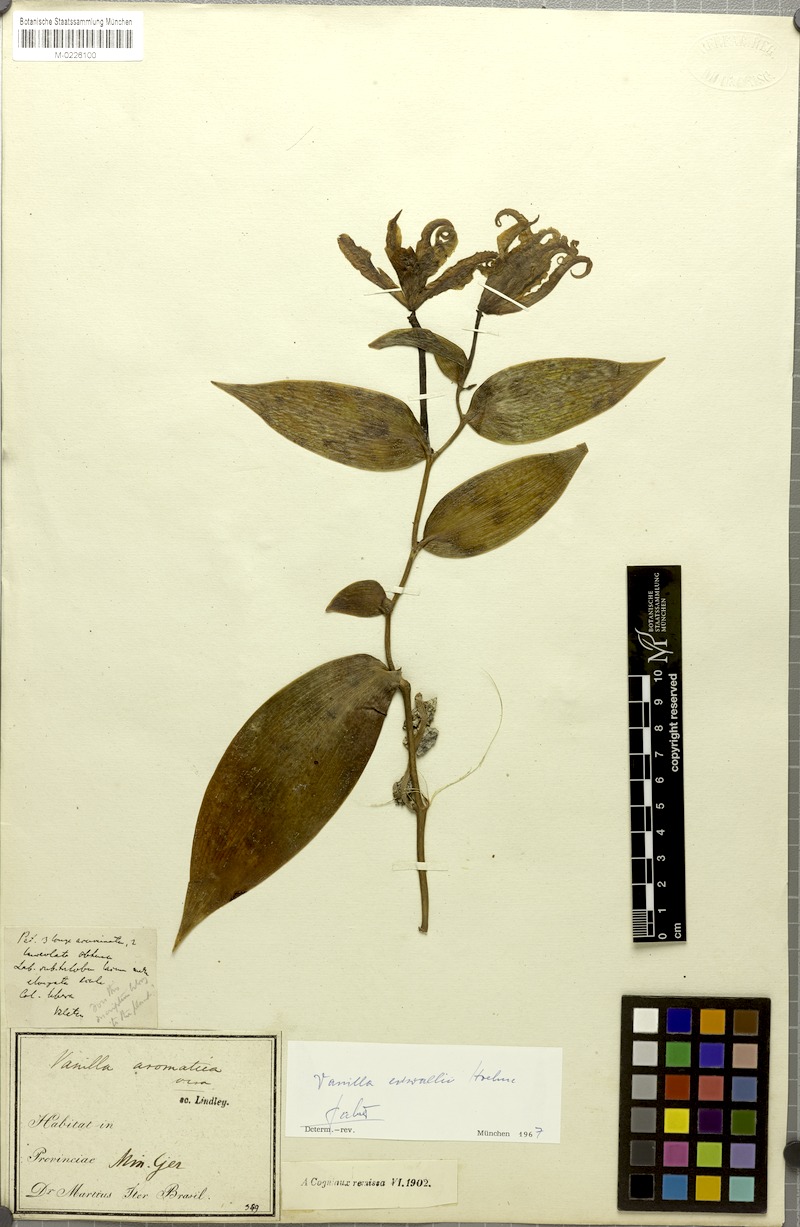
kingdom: Plantae
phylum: Tracheophyta
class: Liliopsida
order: Asparagales
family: Orchidaceae
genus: Vanilla
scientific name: Vanilla edwallii
